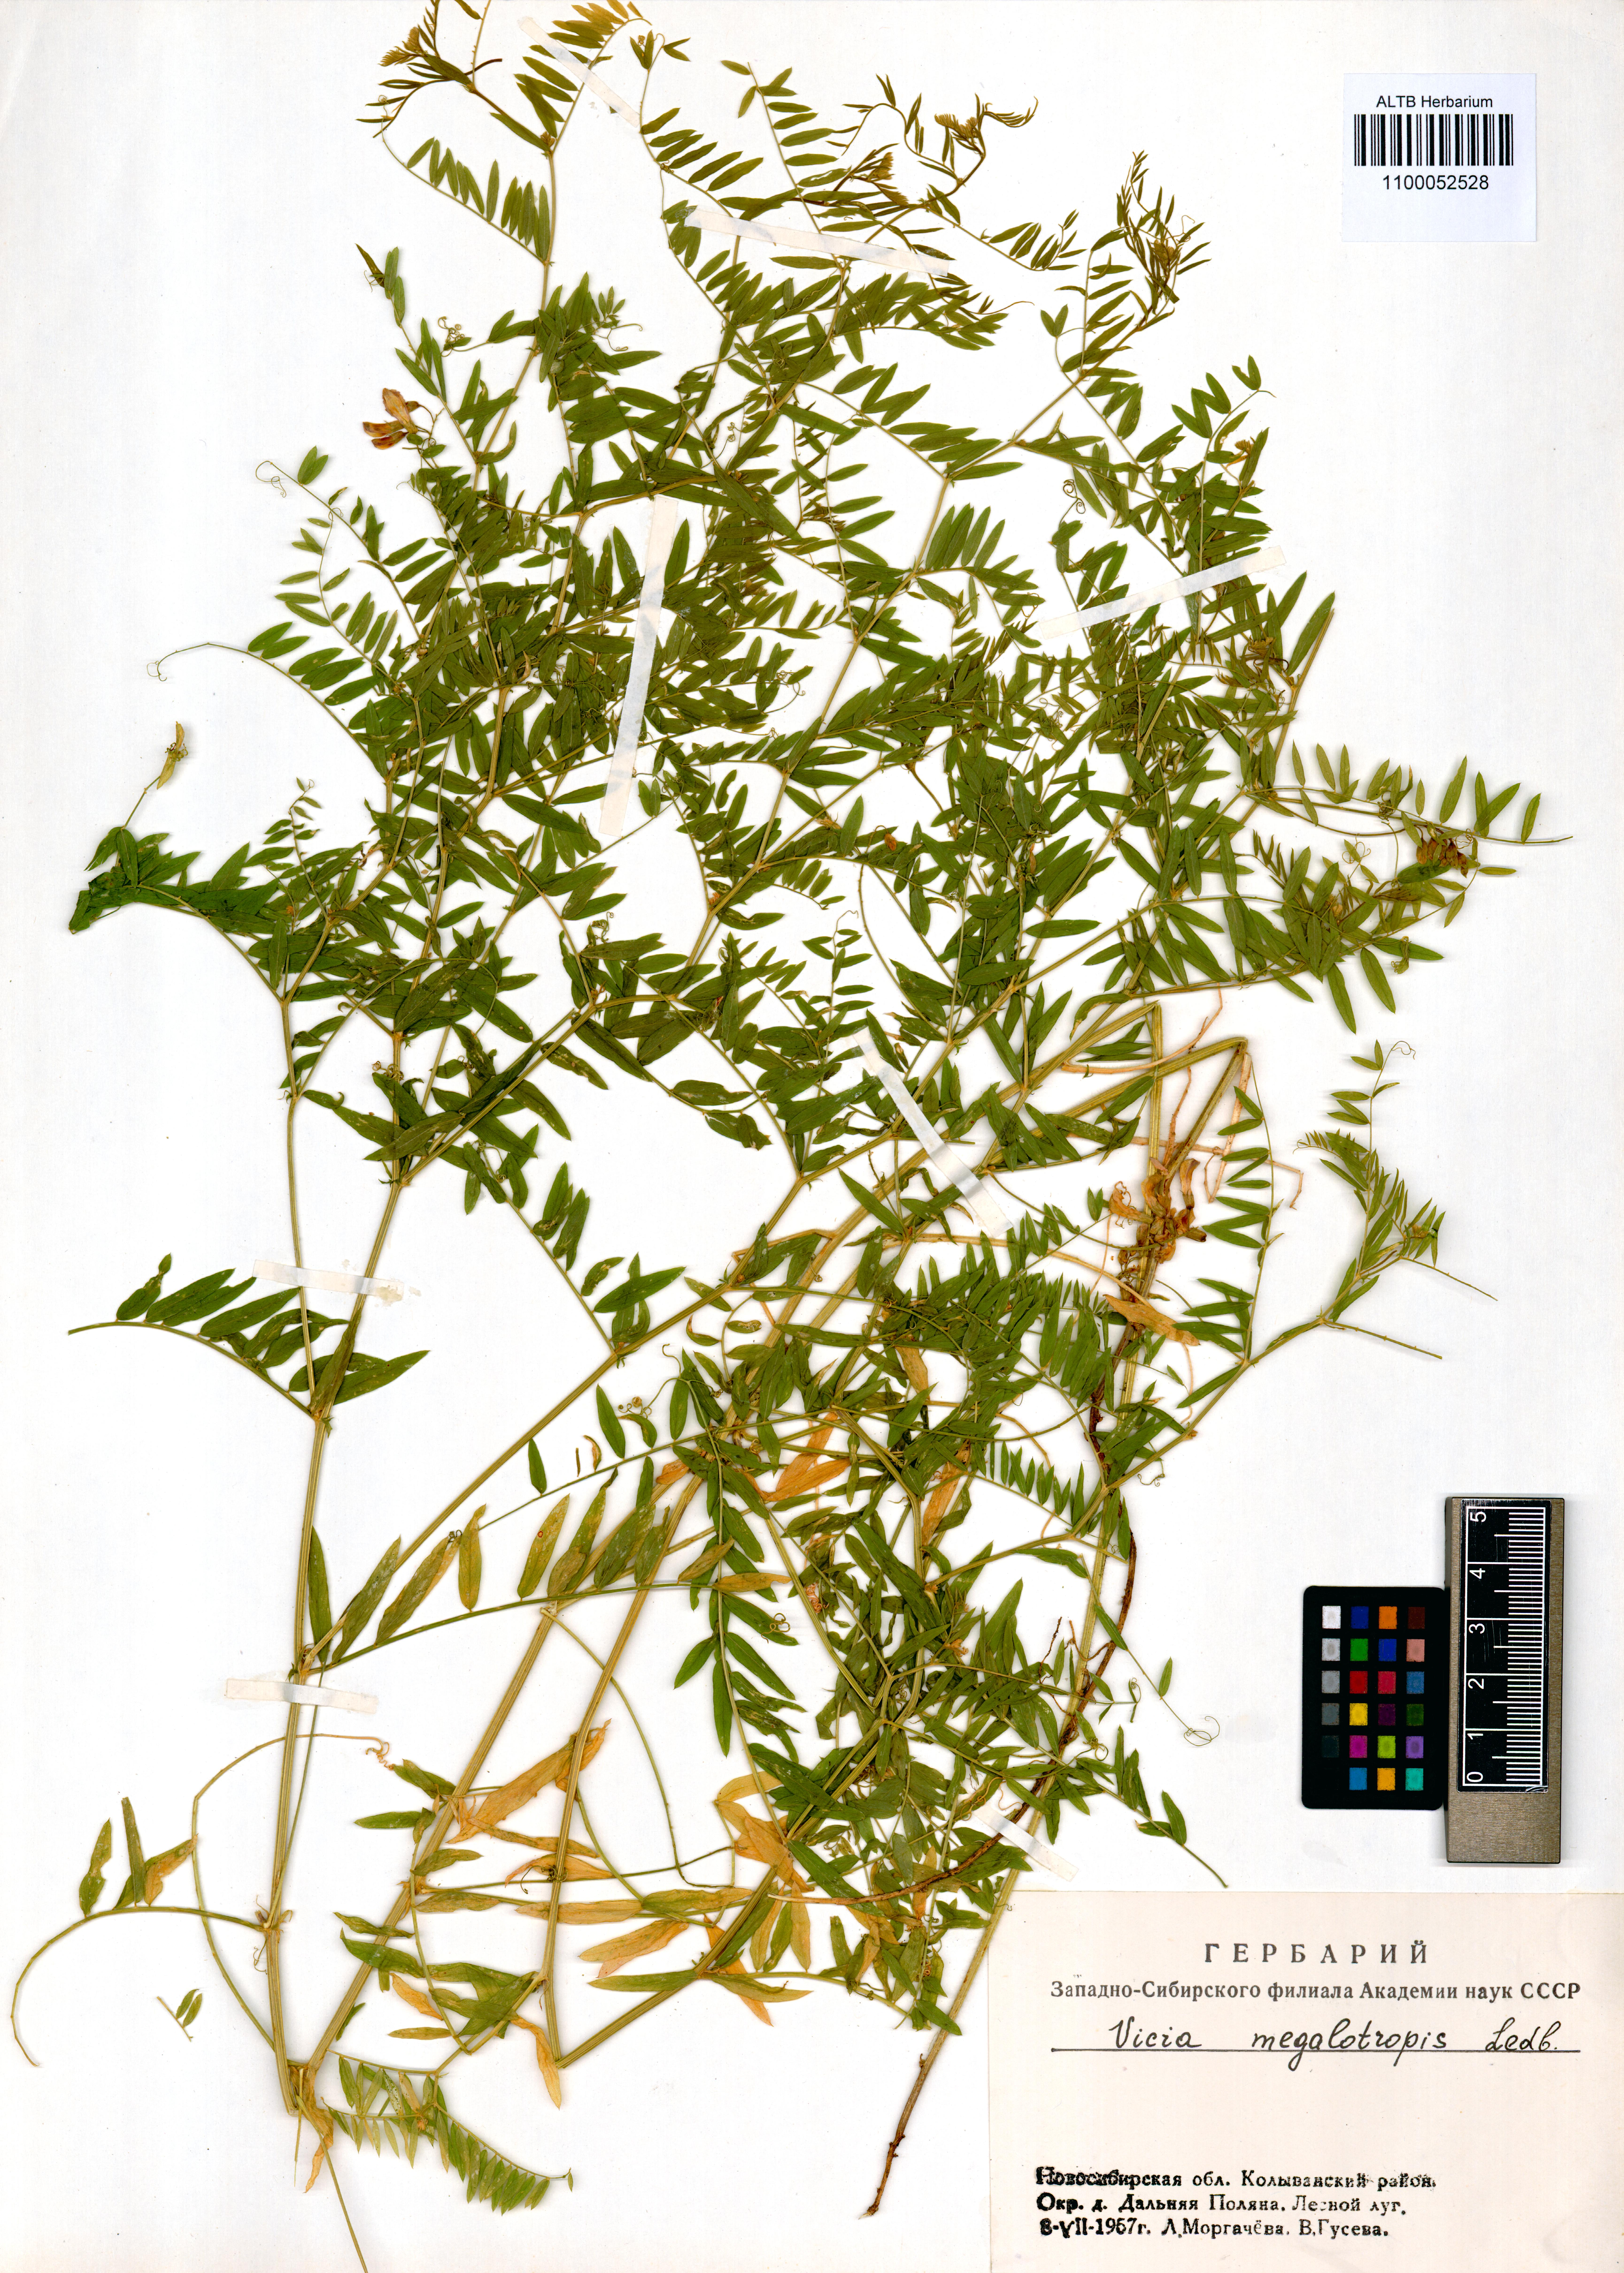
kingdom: Plantae
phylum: Tracheophyta
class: Magnoliopsida
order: Fabales
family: Fabaceae
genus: Vicia
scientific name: Vicia megalotropis
